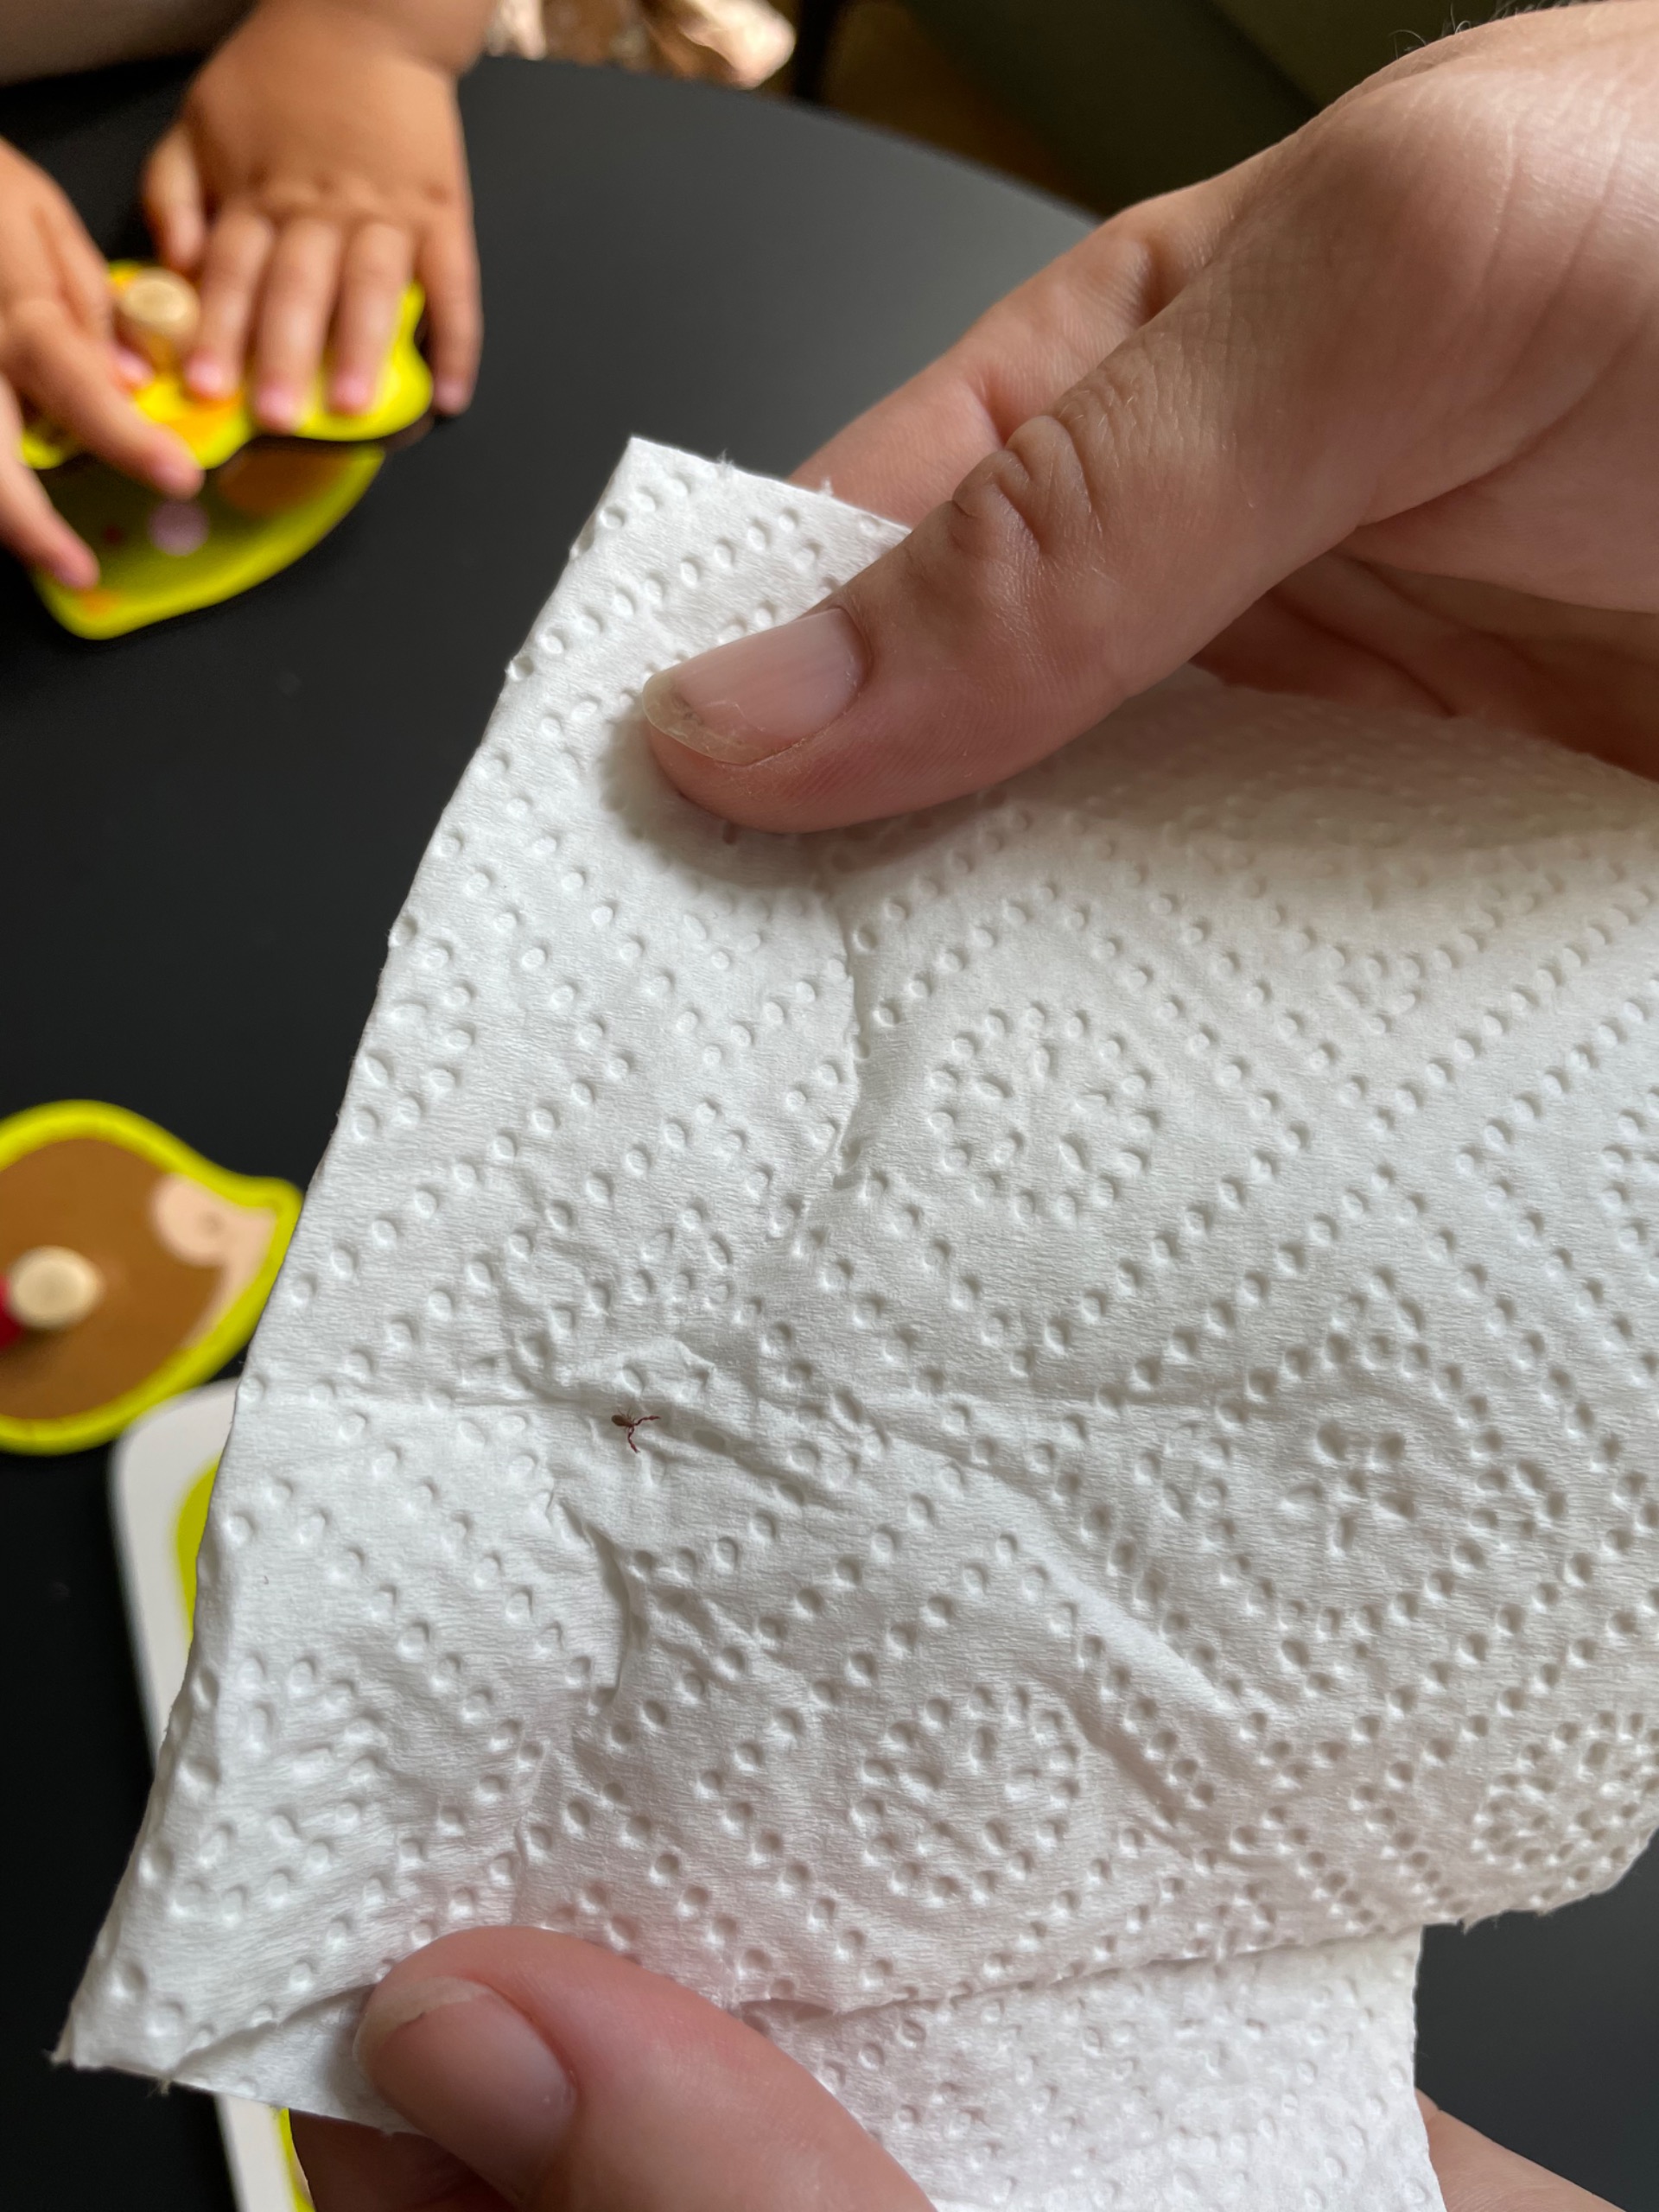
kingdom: Animalia
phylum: Arthropoda
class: Arachnida
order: Pseudoscorpiones
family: Chernetidae
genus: Pselaphochernes
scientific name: Pselaphochernes scorpioides
